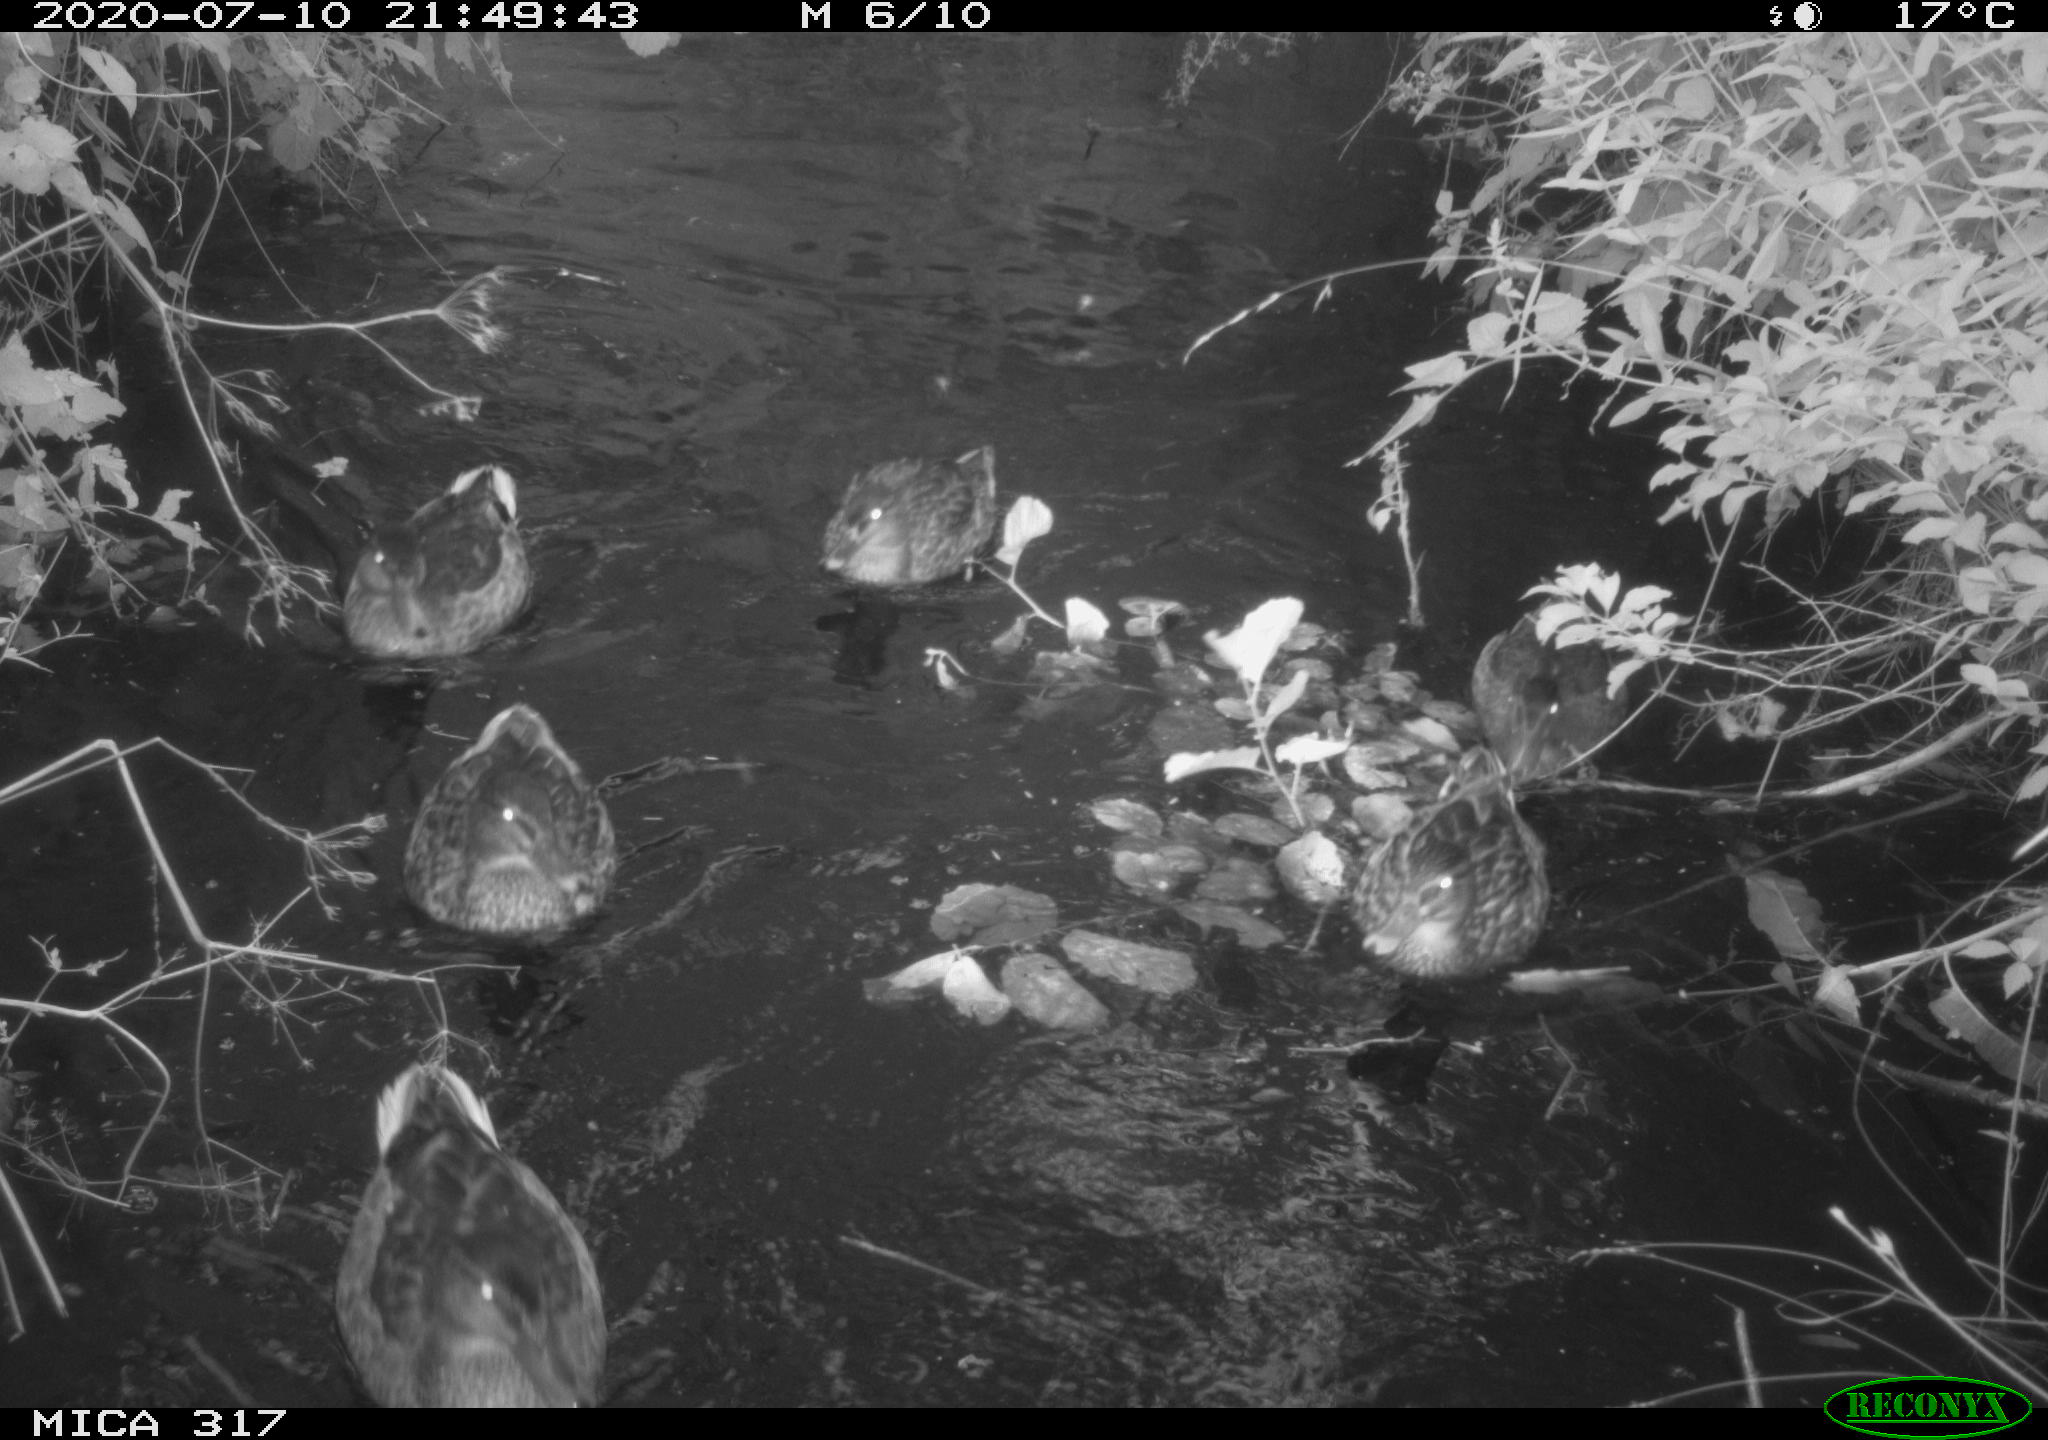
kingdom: Animalia
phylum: Chordata
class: Aves
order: Anseriformes
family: Anatidae
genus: Anas
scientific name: Anas platyrhynchos
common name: Mallard
